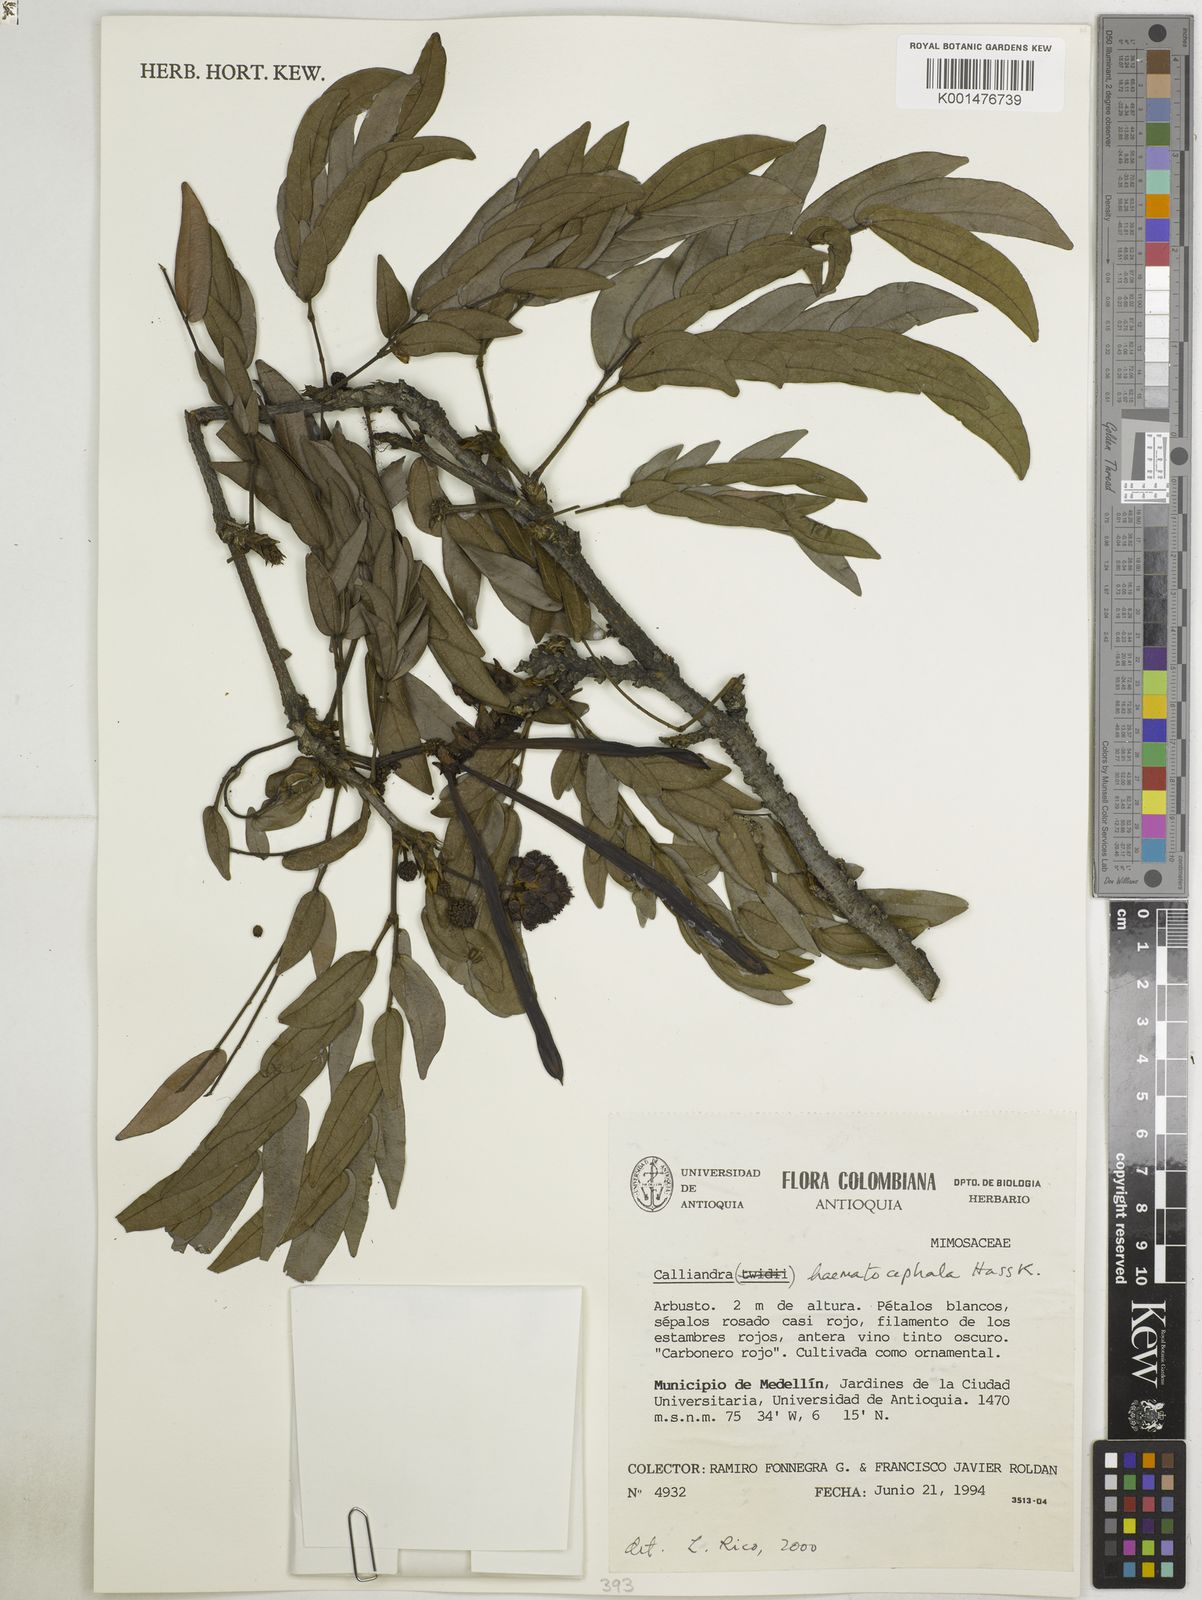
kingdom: Plantae
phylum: Tracheophyta
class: Magnoliopsida
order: Fabales
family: Fabaceae
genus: Calliandra
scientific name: Calliandra haematocephala
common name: Blood red tassel flower
